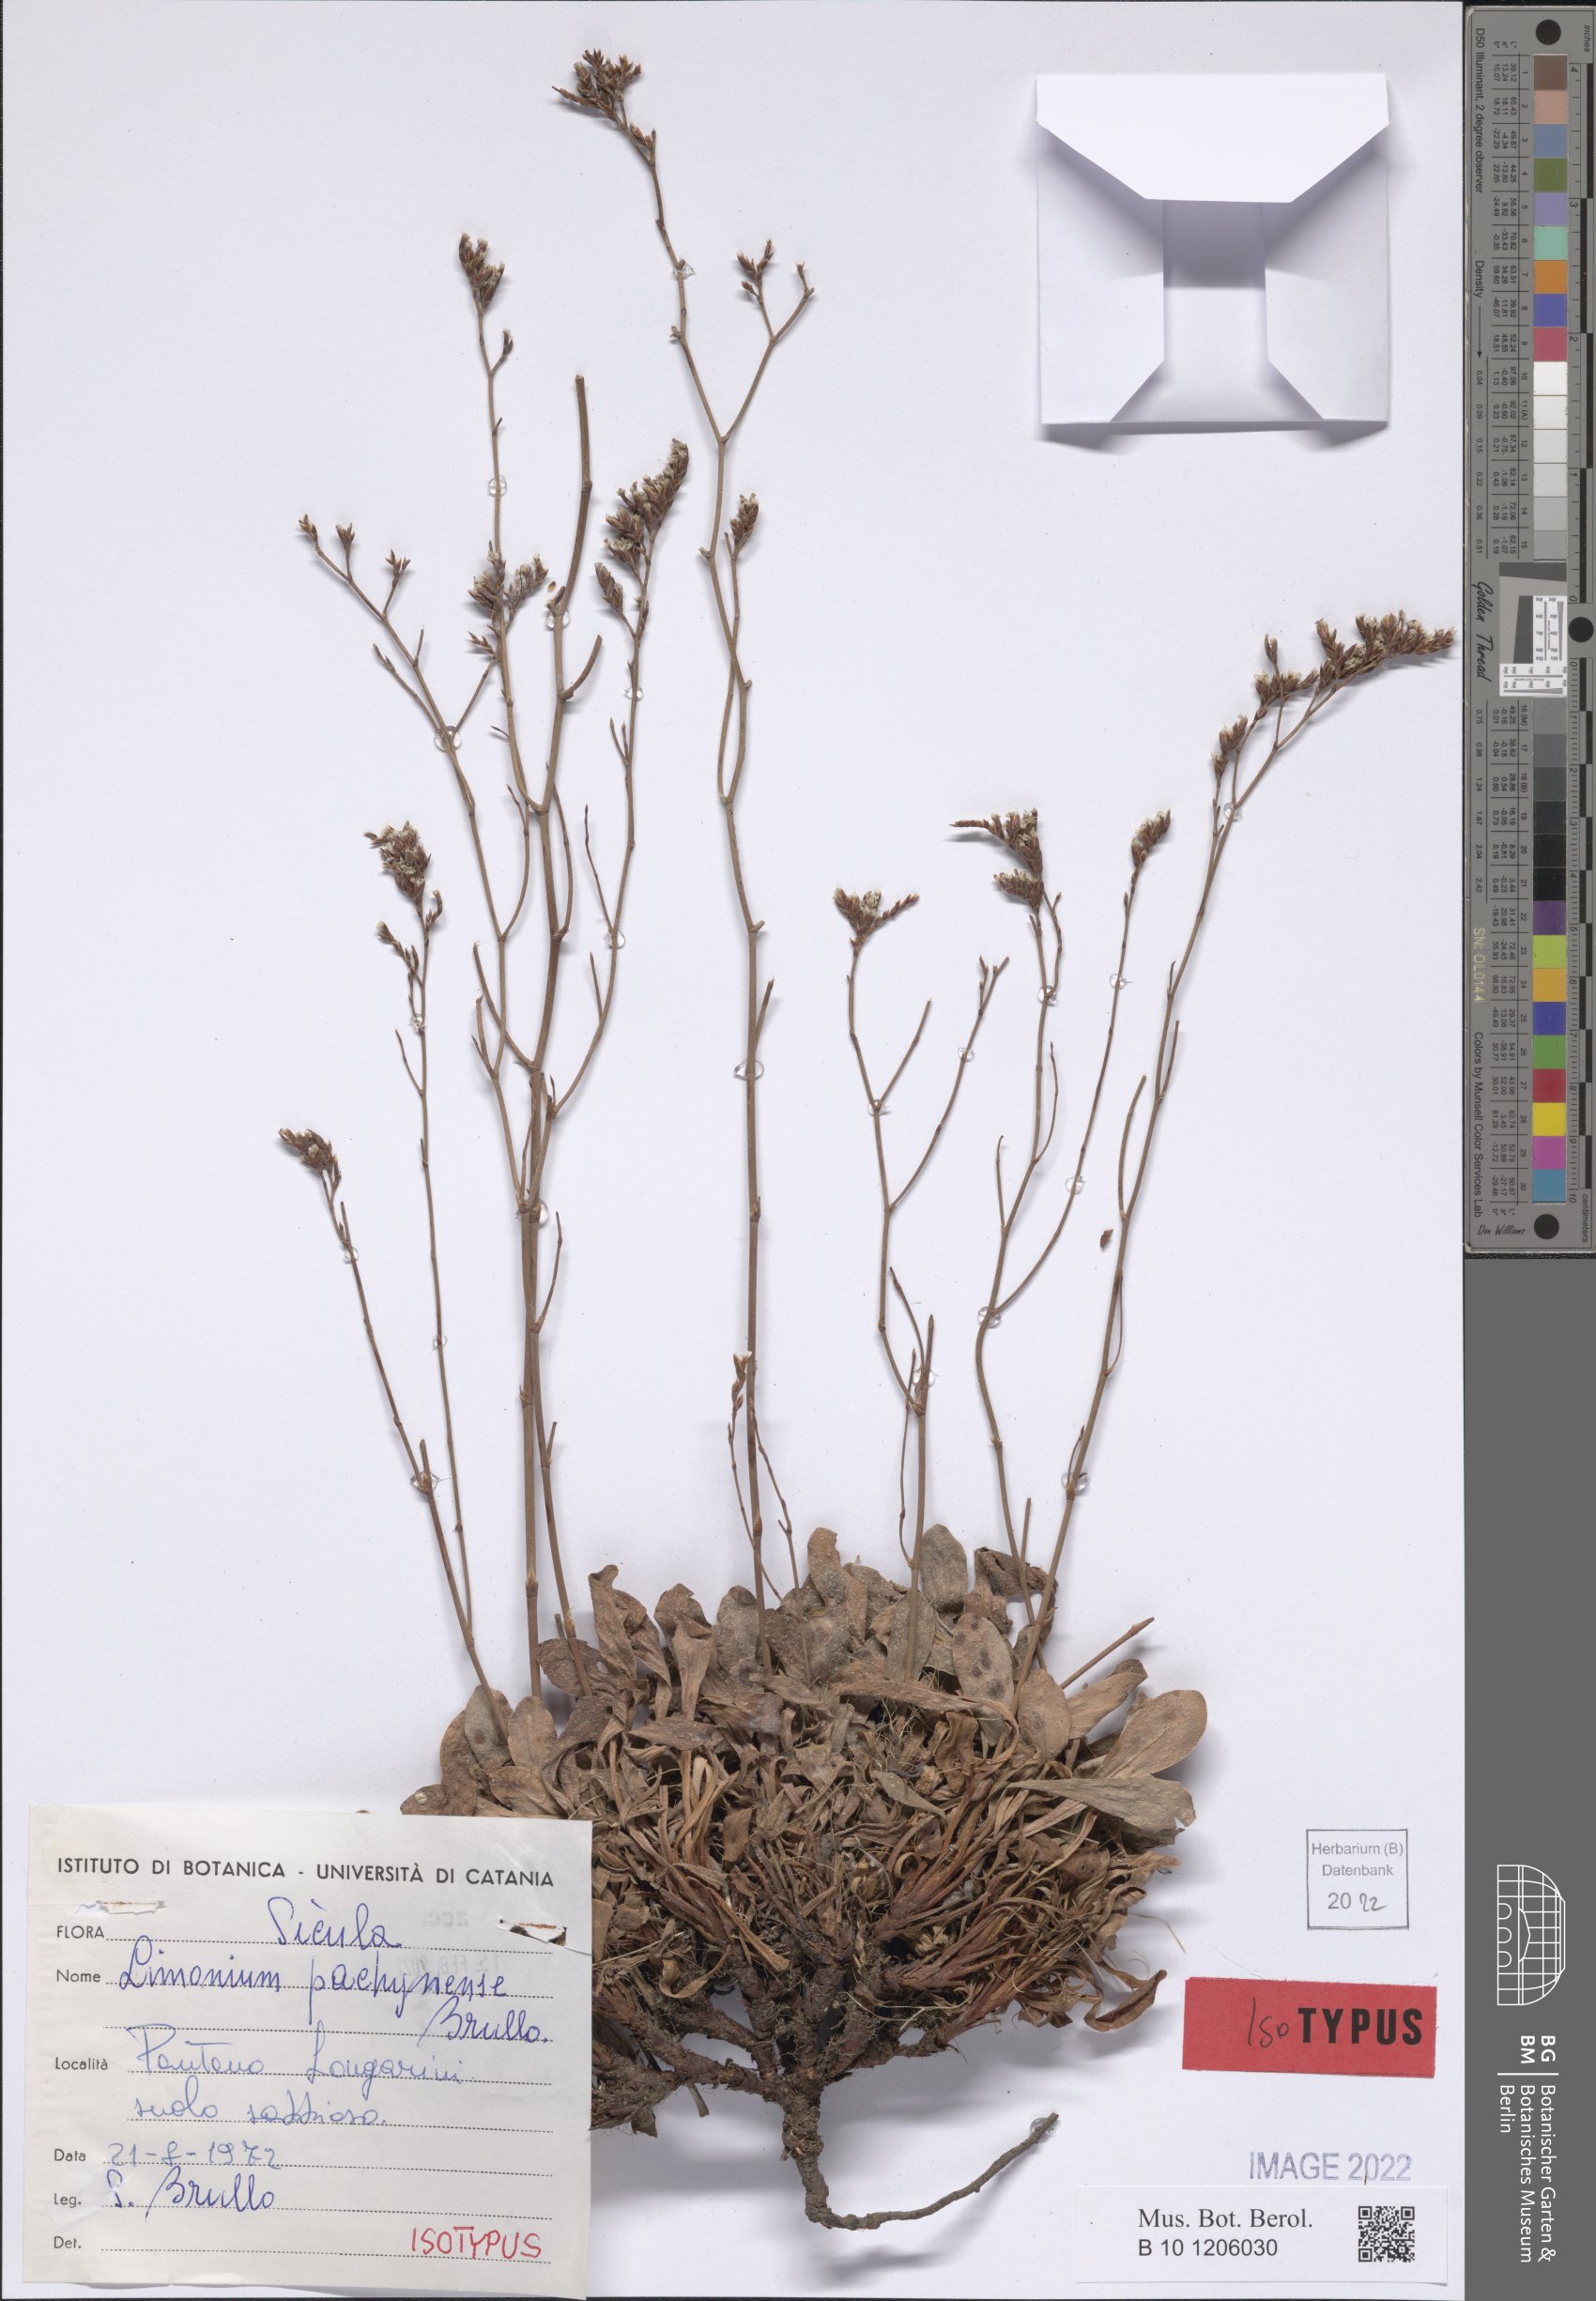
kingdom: Plantae
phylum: Tracheophyta
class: Magnoliopsida
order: Caryophyllales
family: Plumbaginaceae
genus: Limonium
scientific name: Limonium pachynense
